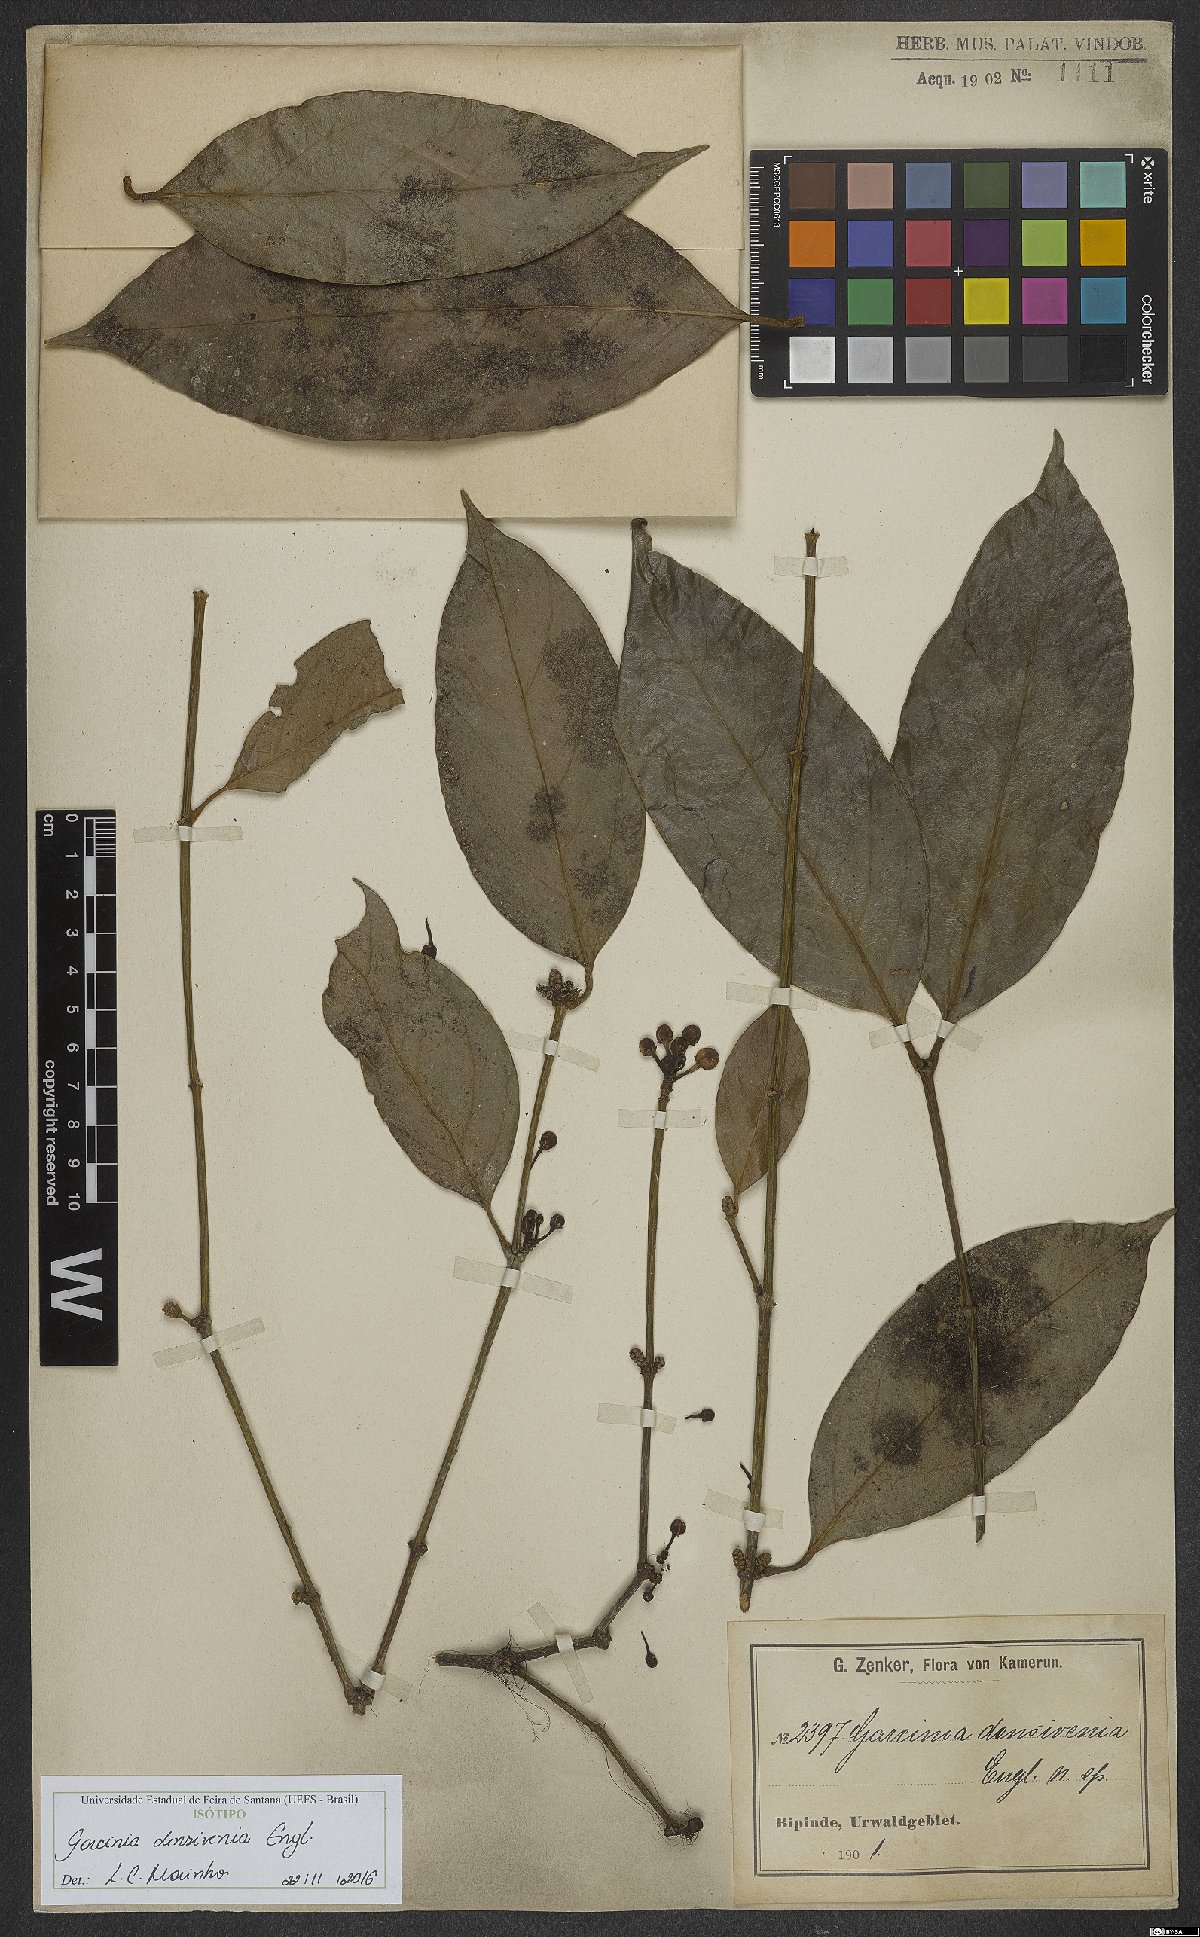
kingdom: Plantae
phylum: Tracheophyta
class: Magnoliopsida
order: Malpighiales
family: Clusiaceae
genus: Garcinia
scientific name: Garcinia densivenia
